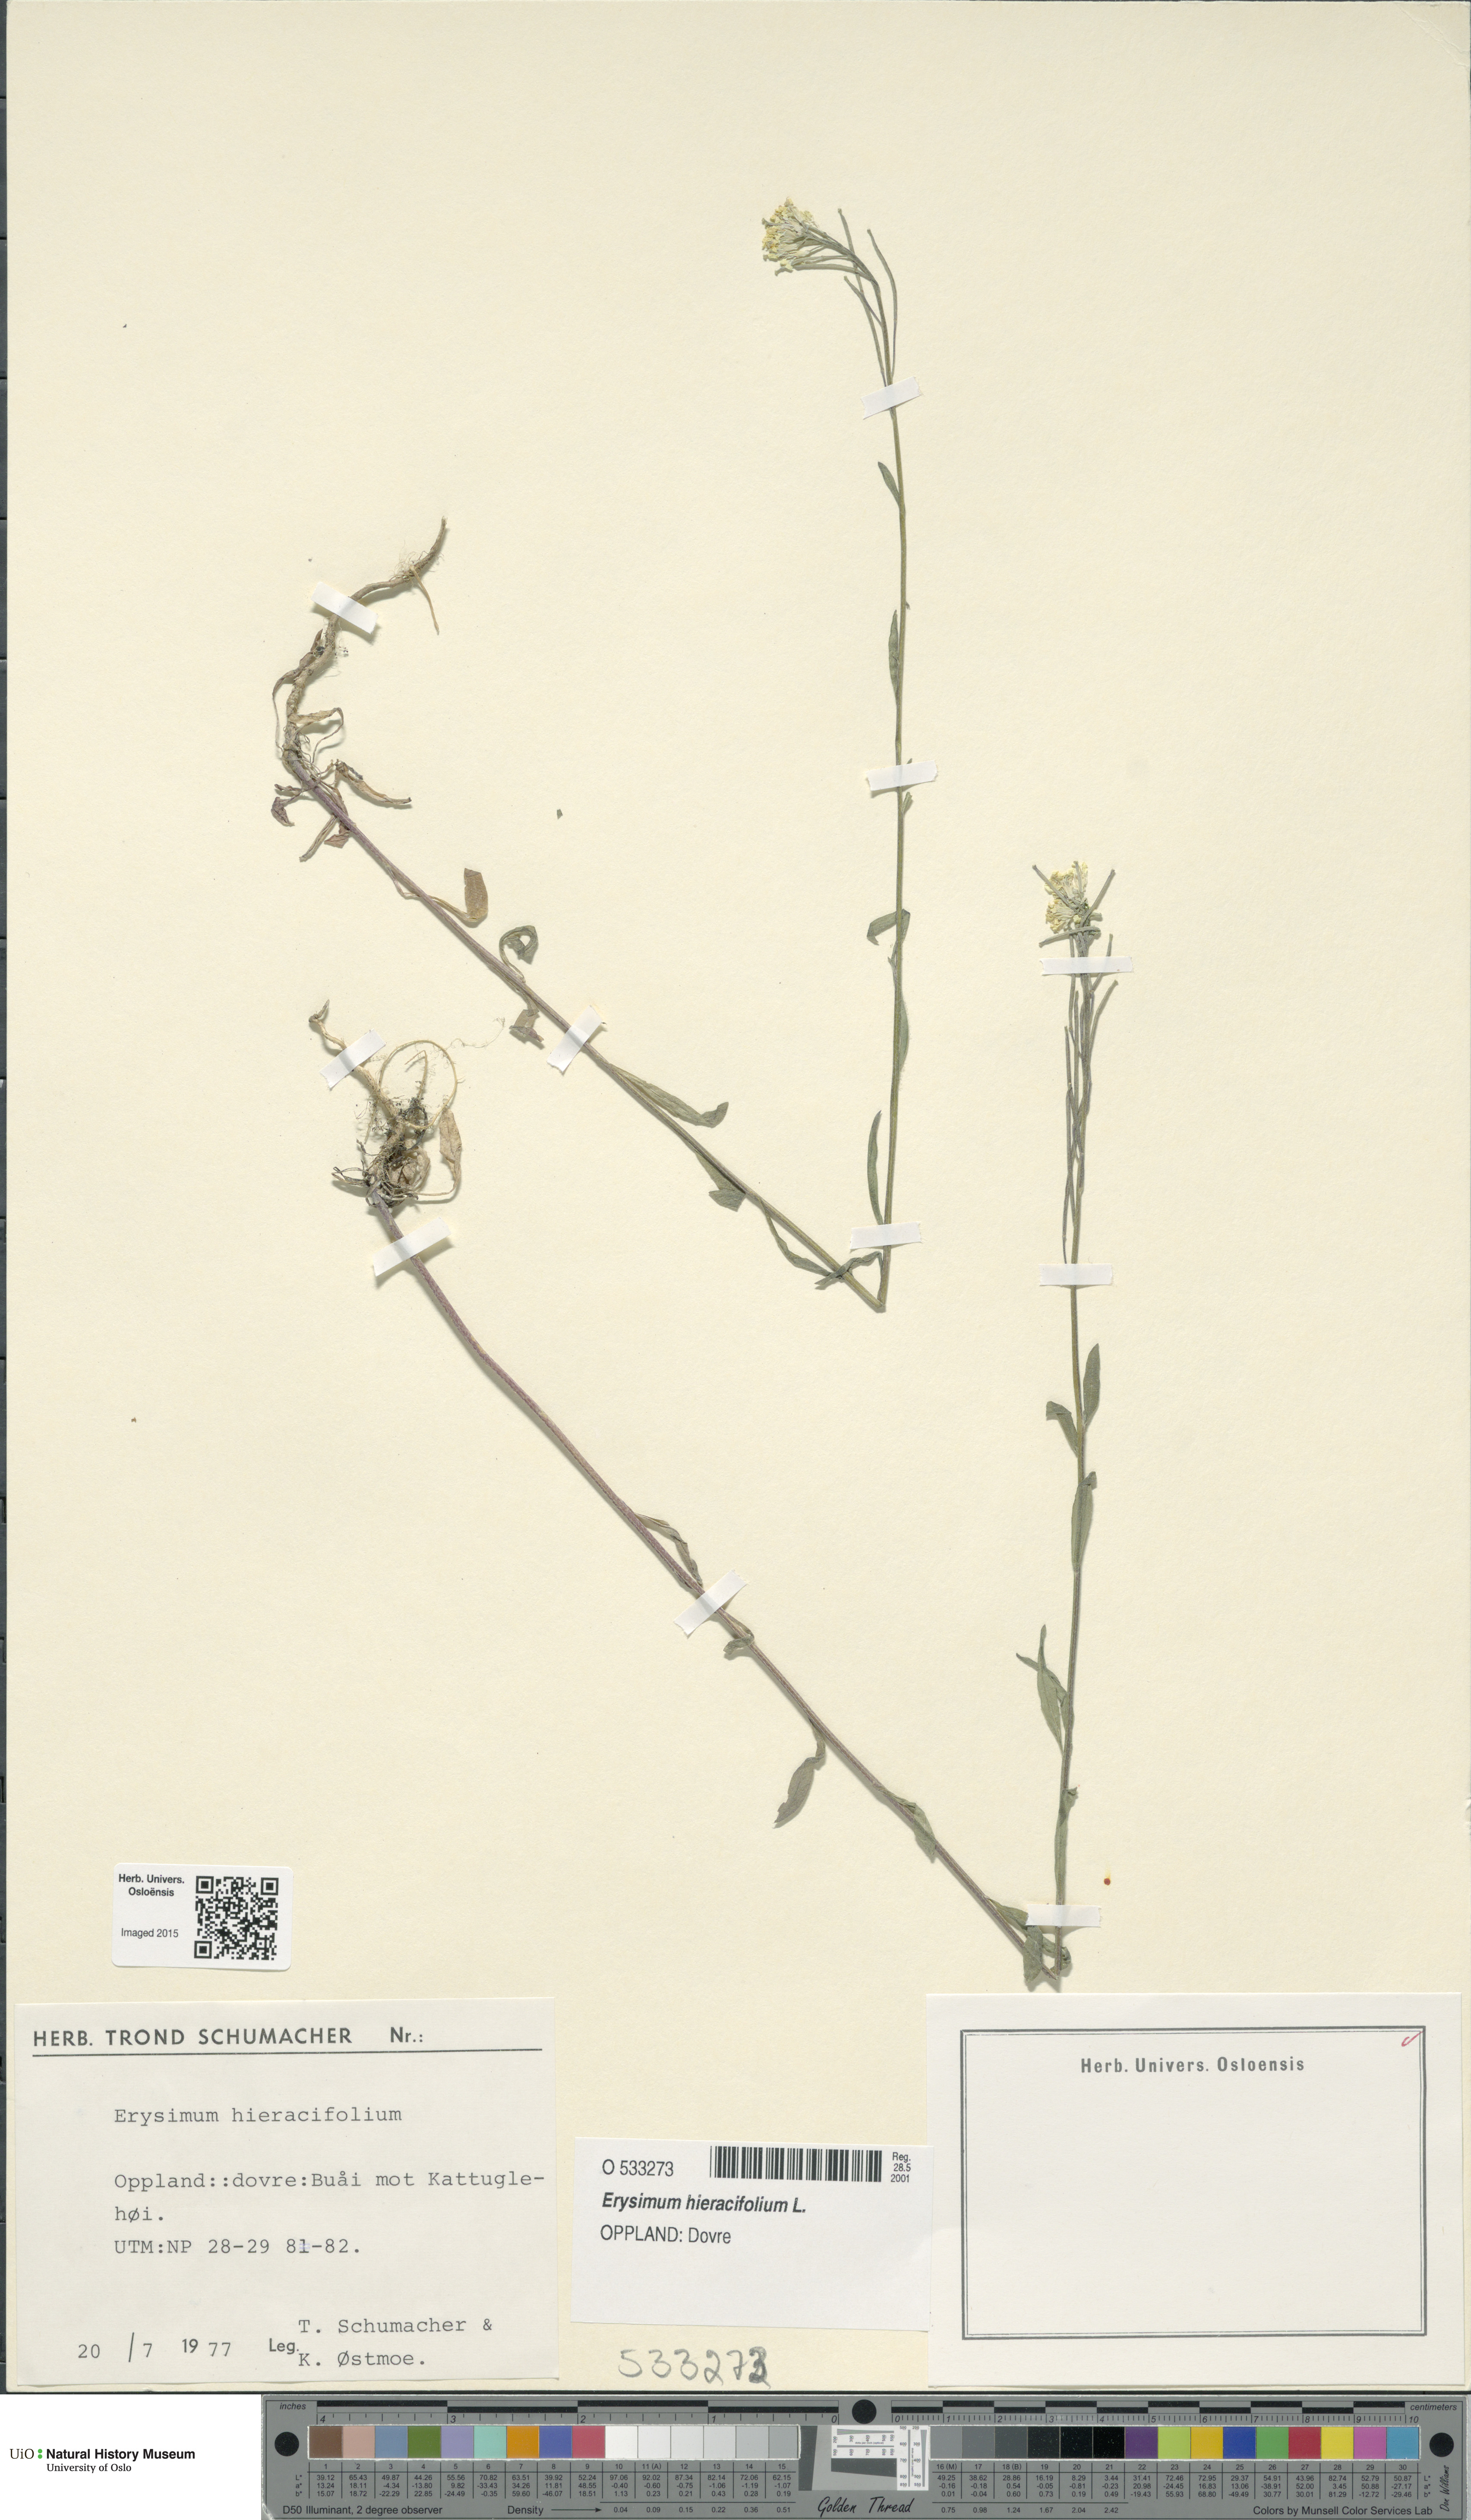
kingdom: Plantae
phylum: Tracheophyta
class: Magnoliopsida
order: Brassicales
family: Brassicaceae
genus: Erysimum
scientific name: Erysimum hieraciifolium
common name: European wallflower
